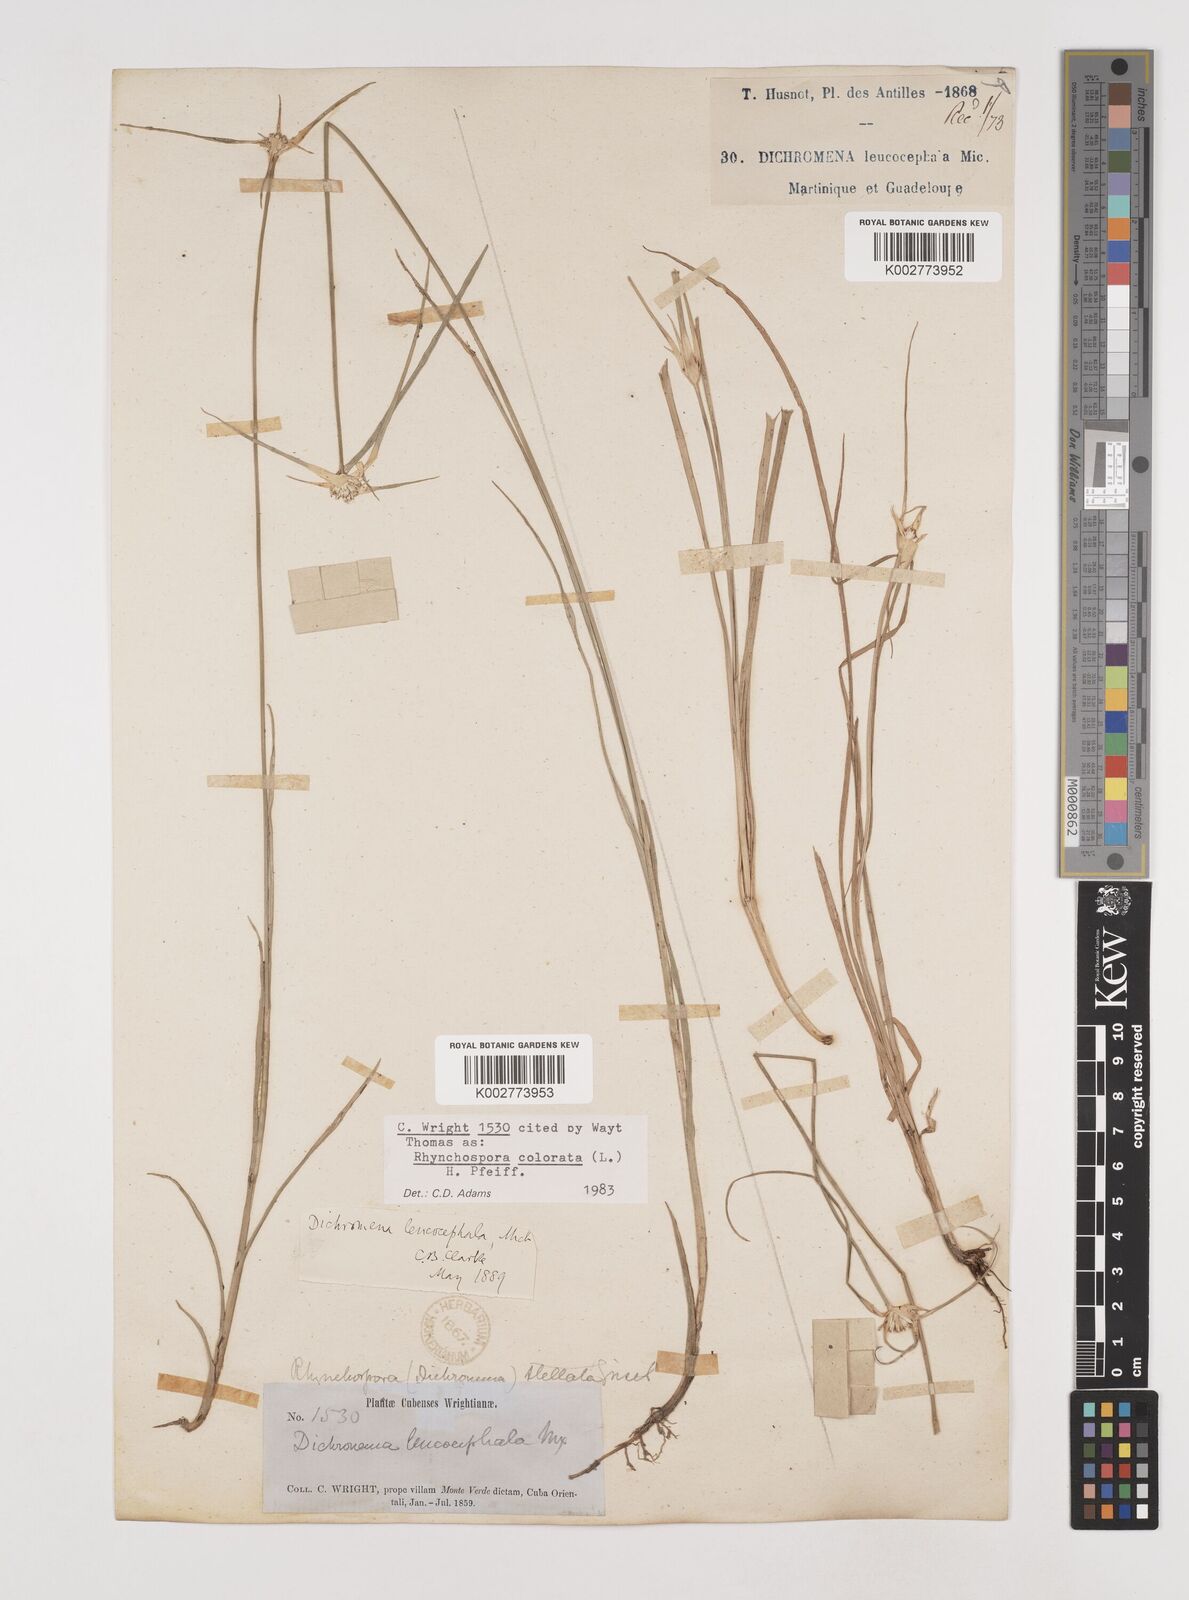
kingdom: Plantae
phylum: Tracheophyta
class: Liliopsida
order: Poales
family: Cyperaceae
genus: Rhynchospora
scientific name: Rhynchospora colorata
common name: Star sedge
